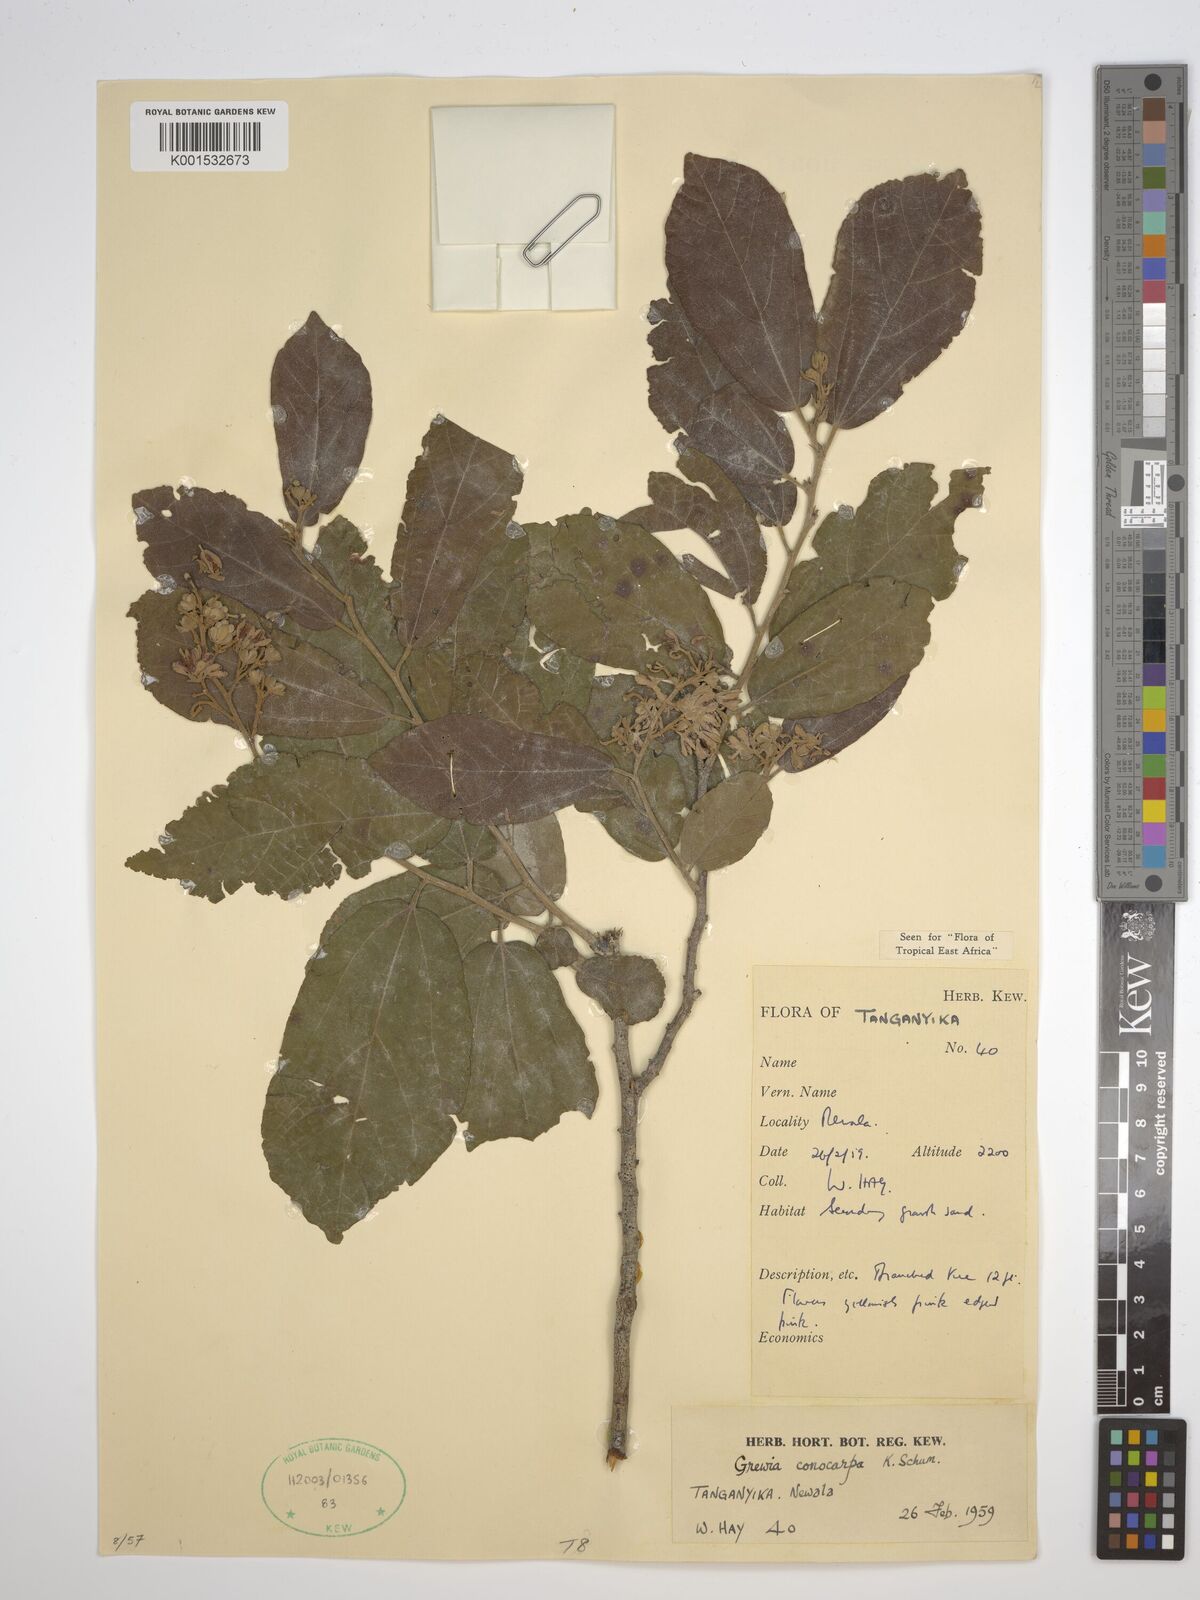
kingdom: Plantae
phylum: Tracheophyta
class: Magnoliopsida
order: Malvales
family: Malvaceae
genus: Microcos
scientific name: Microcos conocarpa
